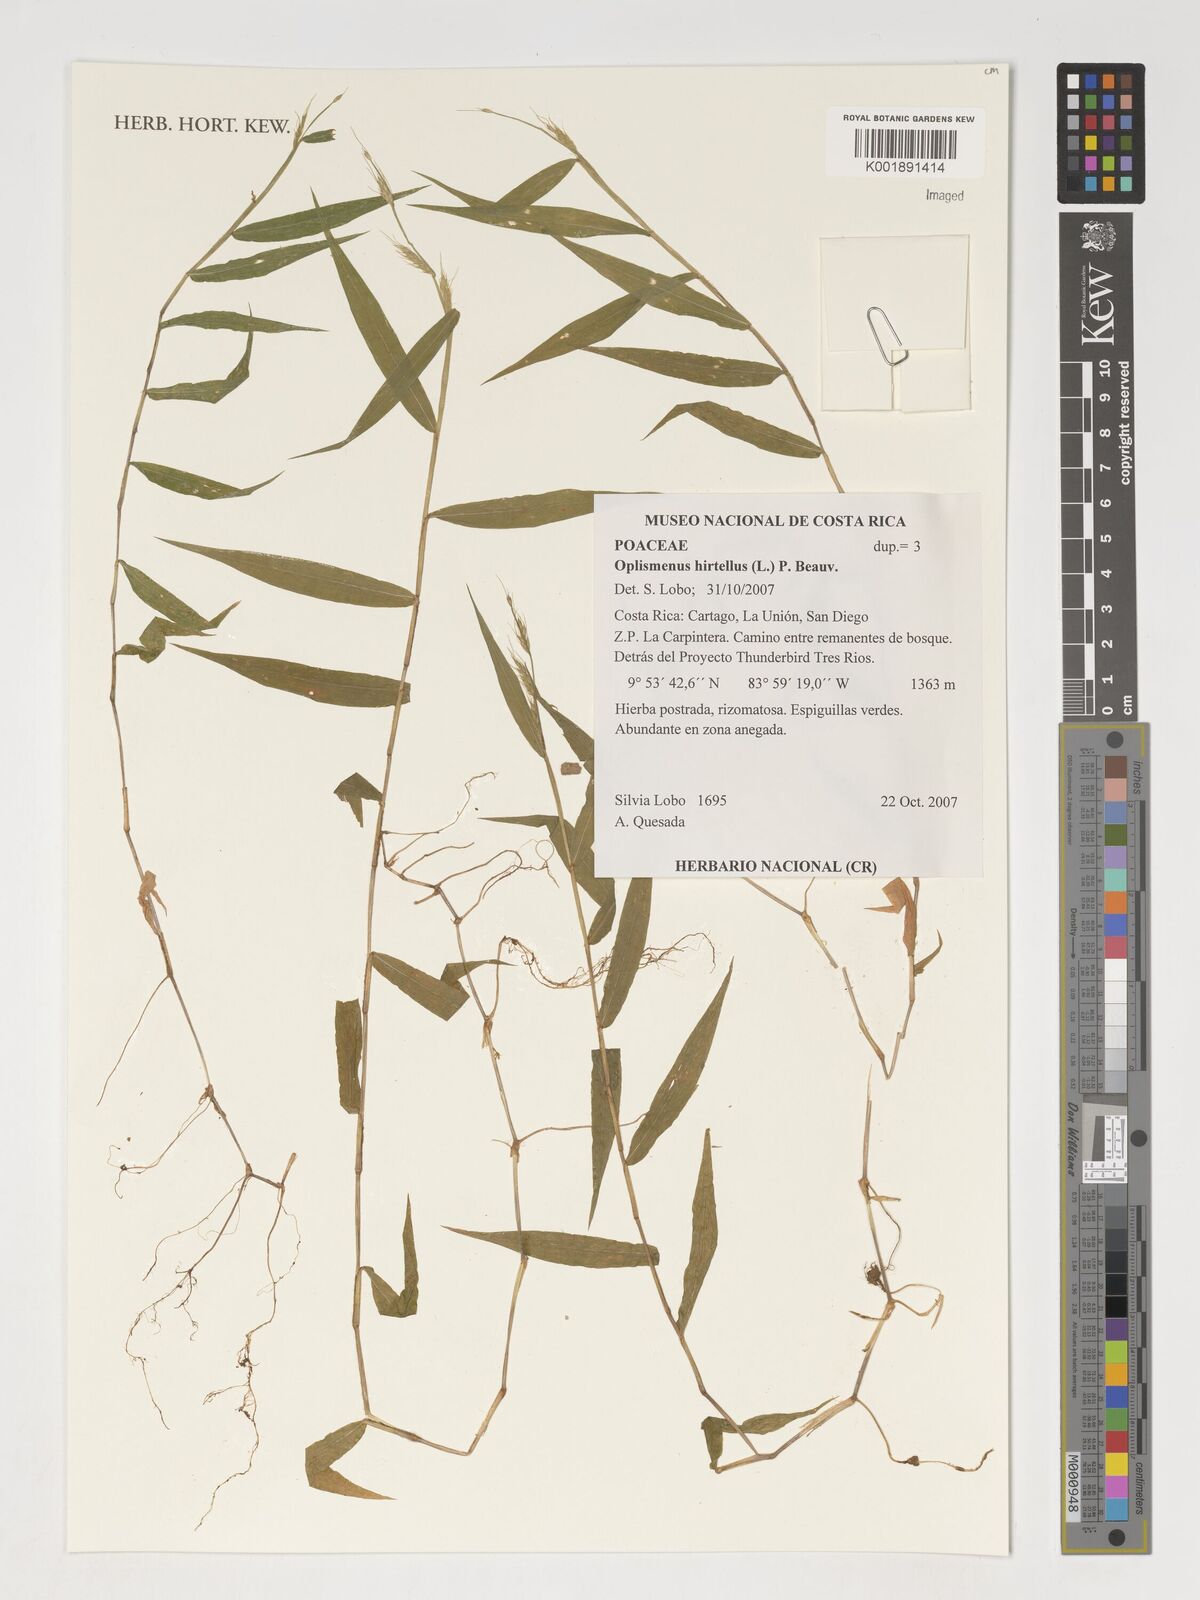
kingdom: Plantae
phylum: Tracheophyta
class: Liliopsida
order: Poales
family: Poaceae
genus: Oplismenus
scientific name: Oplismenus hirtellus
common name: Basketgrass
